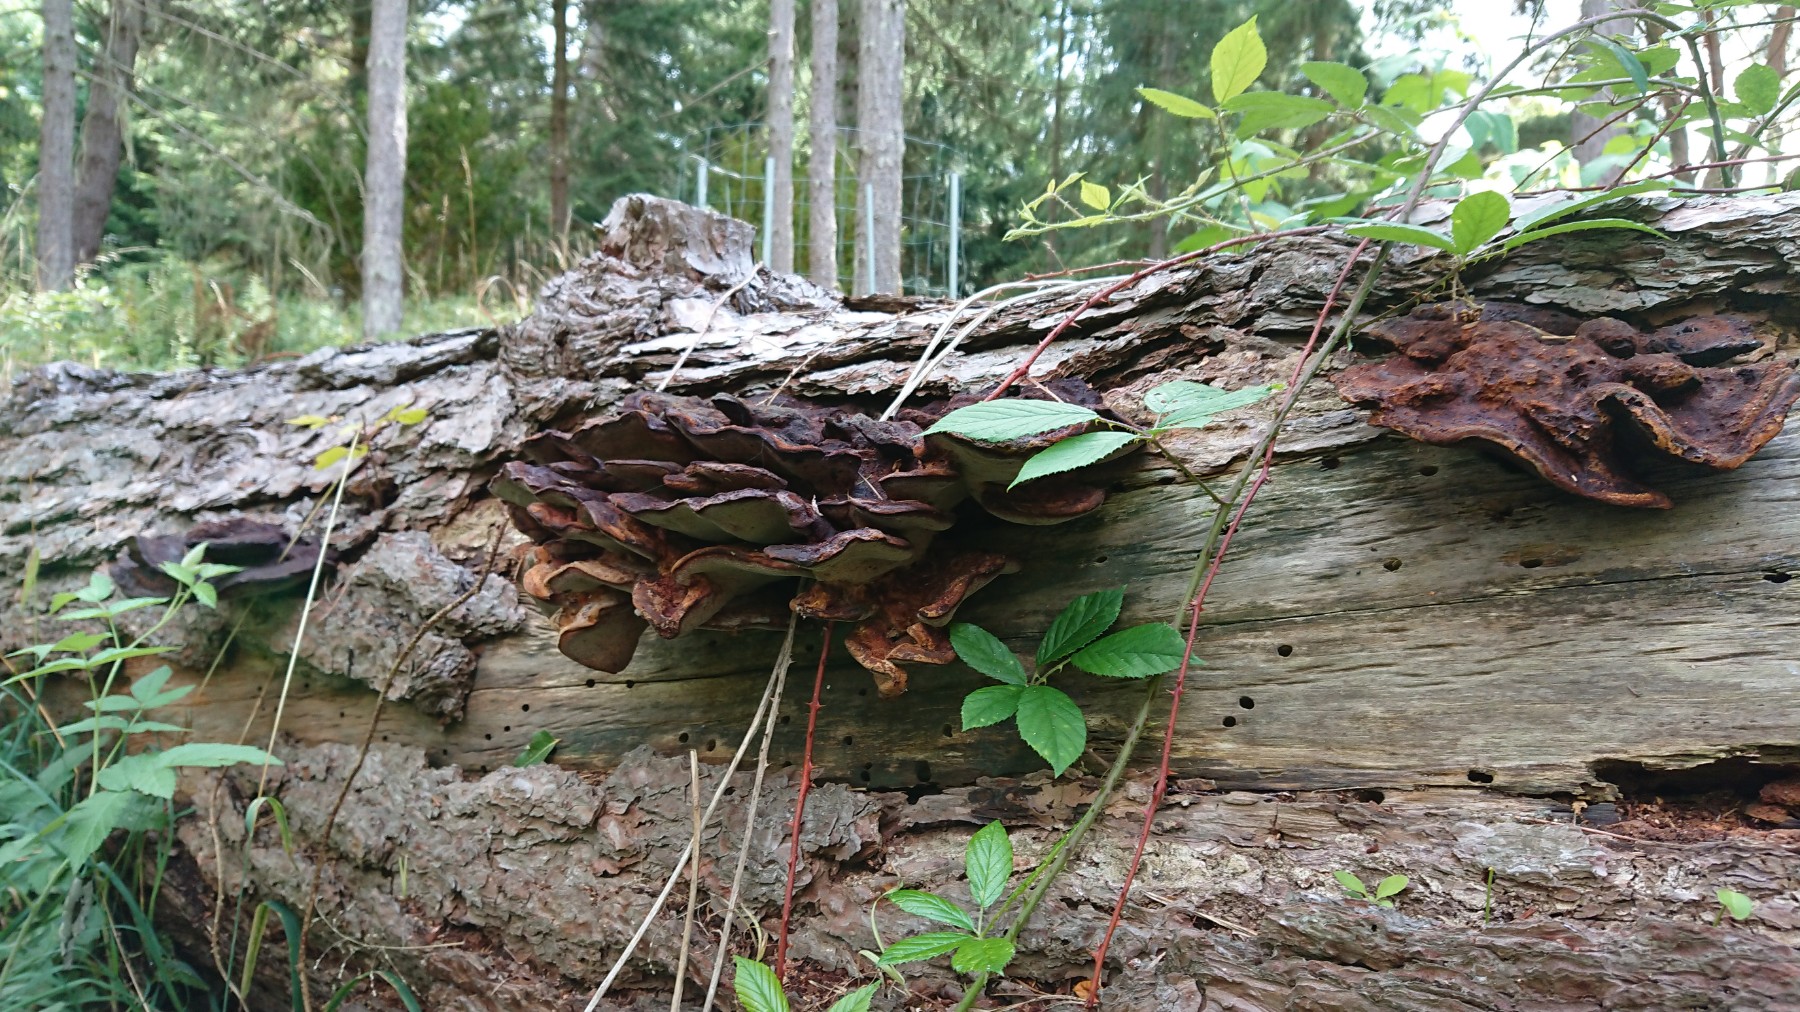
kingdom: Fungi
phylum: Basidiomycota
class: Agaricomycetes
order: Polyporales
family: Ischnodermataceae
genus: Ischnoderma
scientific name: Ischnoderma benzoinum
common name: gran-tjæreporesvamp
